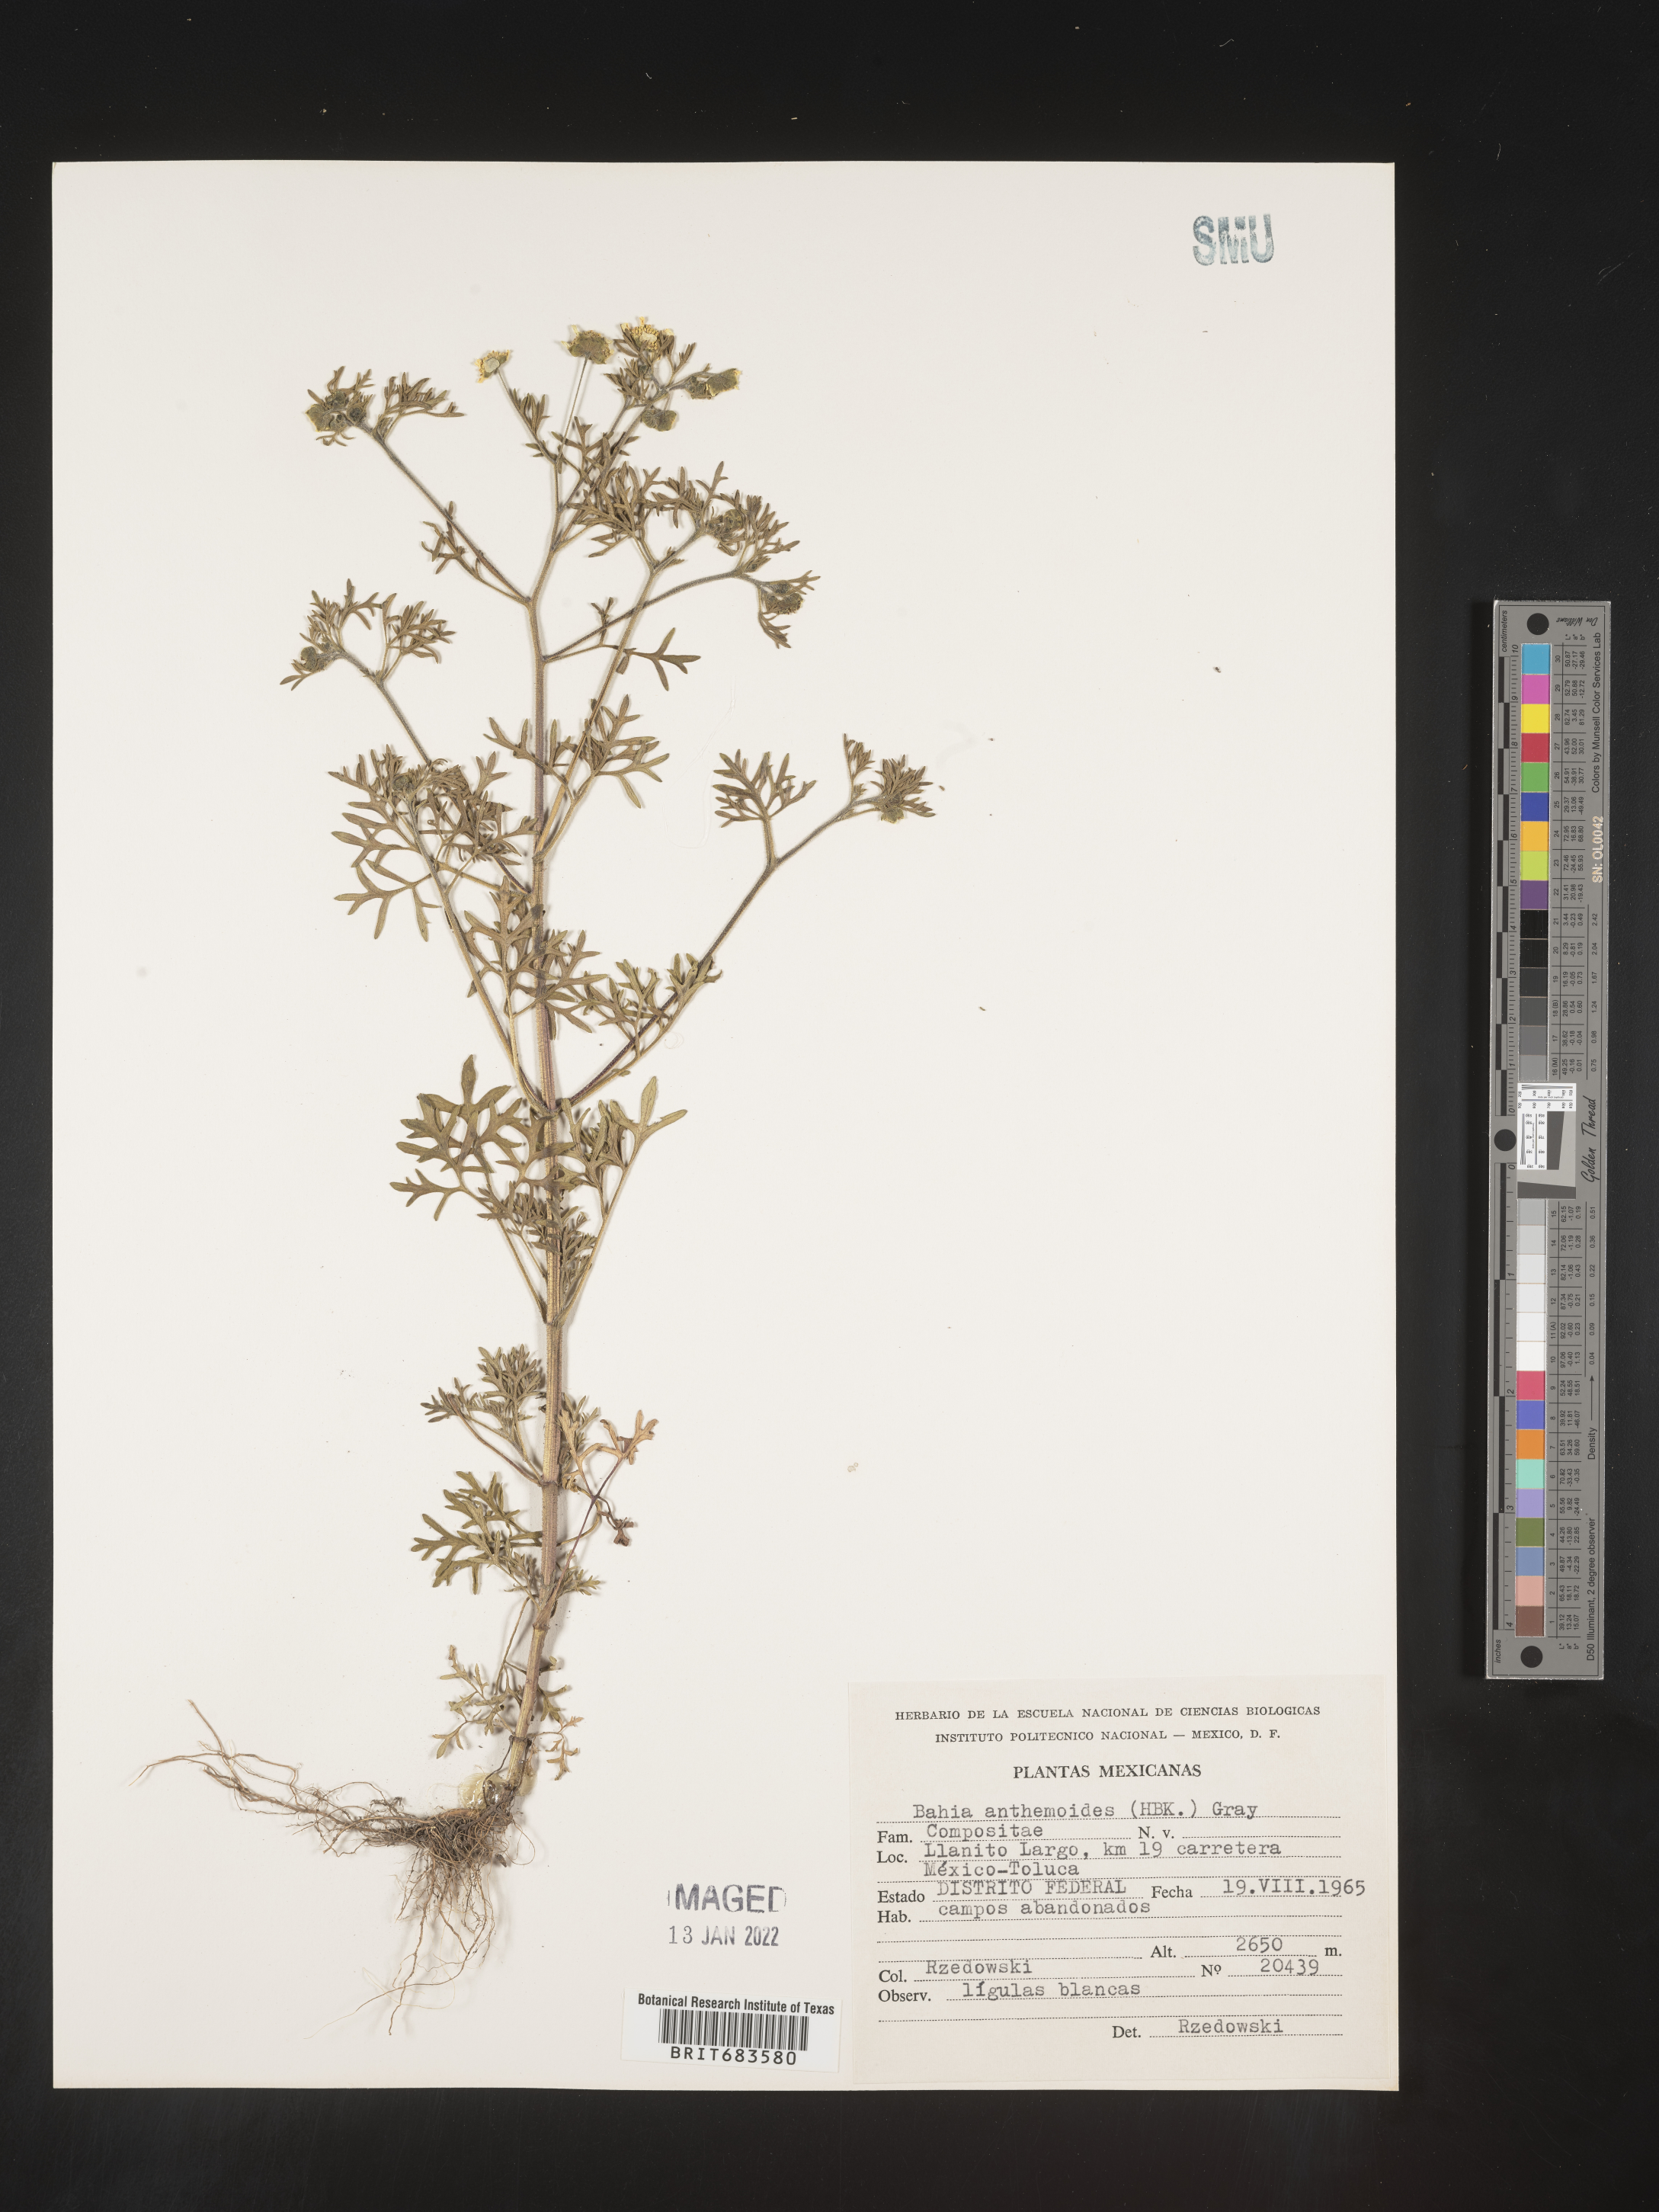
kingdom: Plantae
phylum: Tracheophyta
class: Magnoliopsida
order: Asterales
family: Asteraceae
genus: Bahia
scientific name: Bahia
